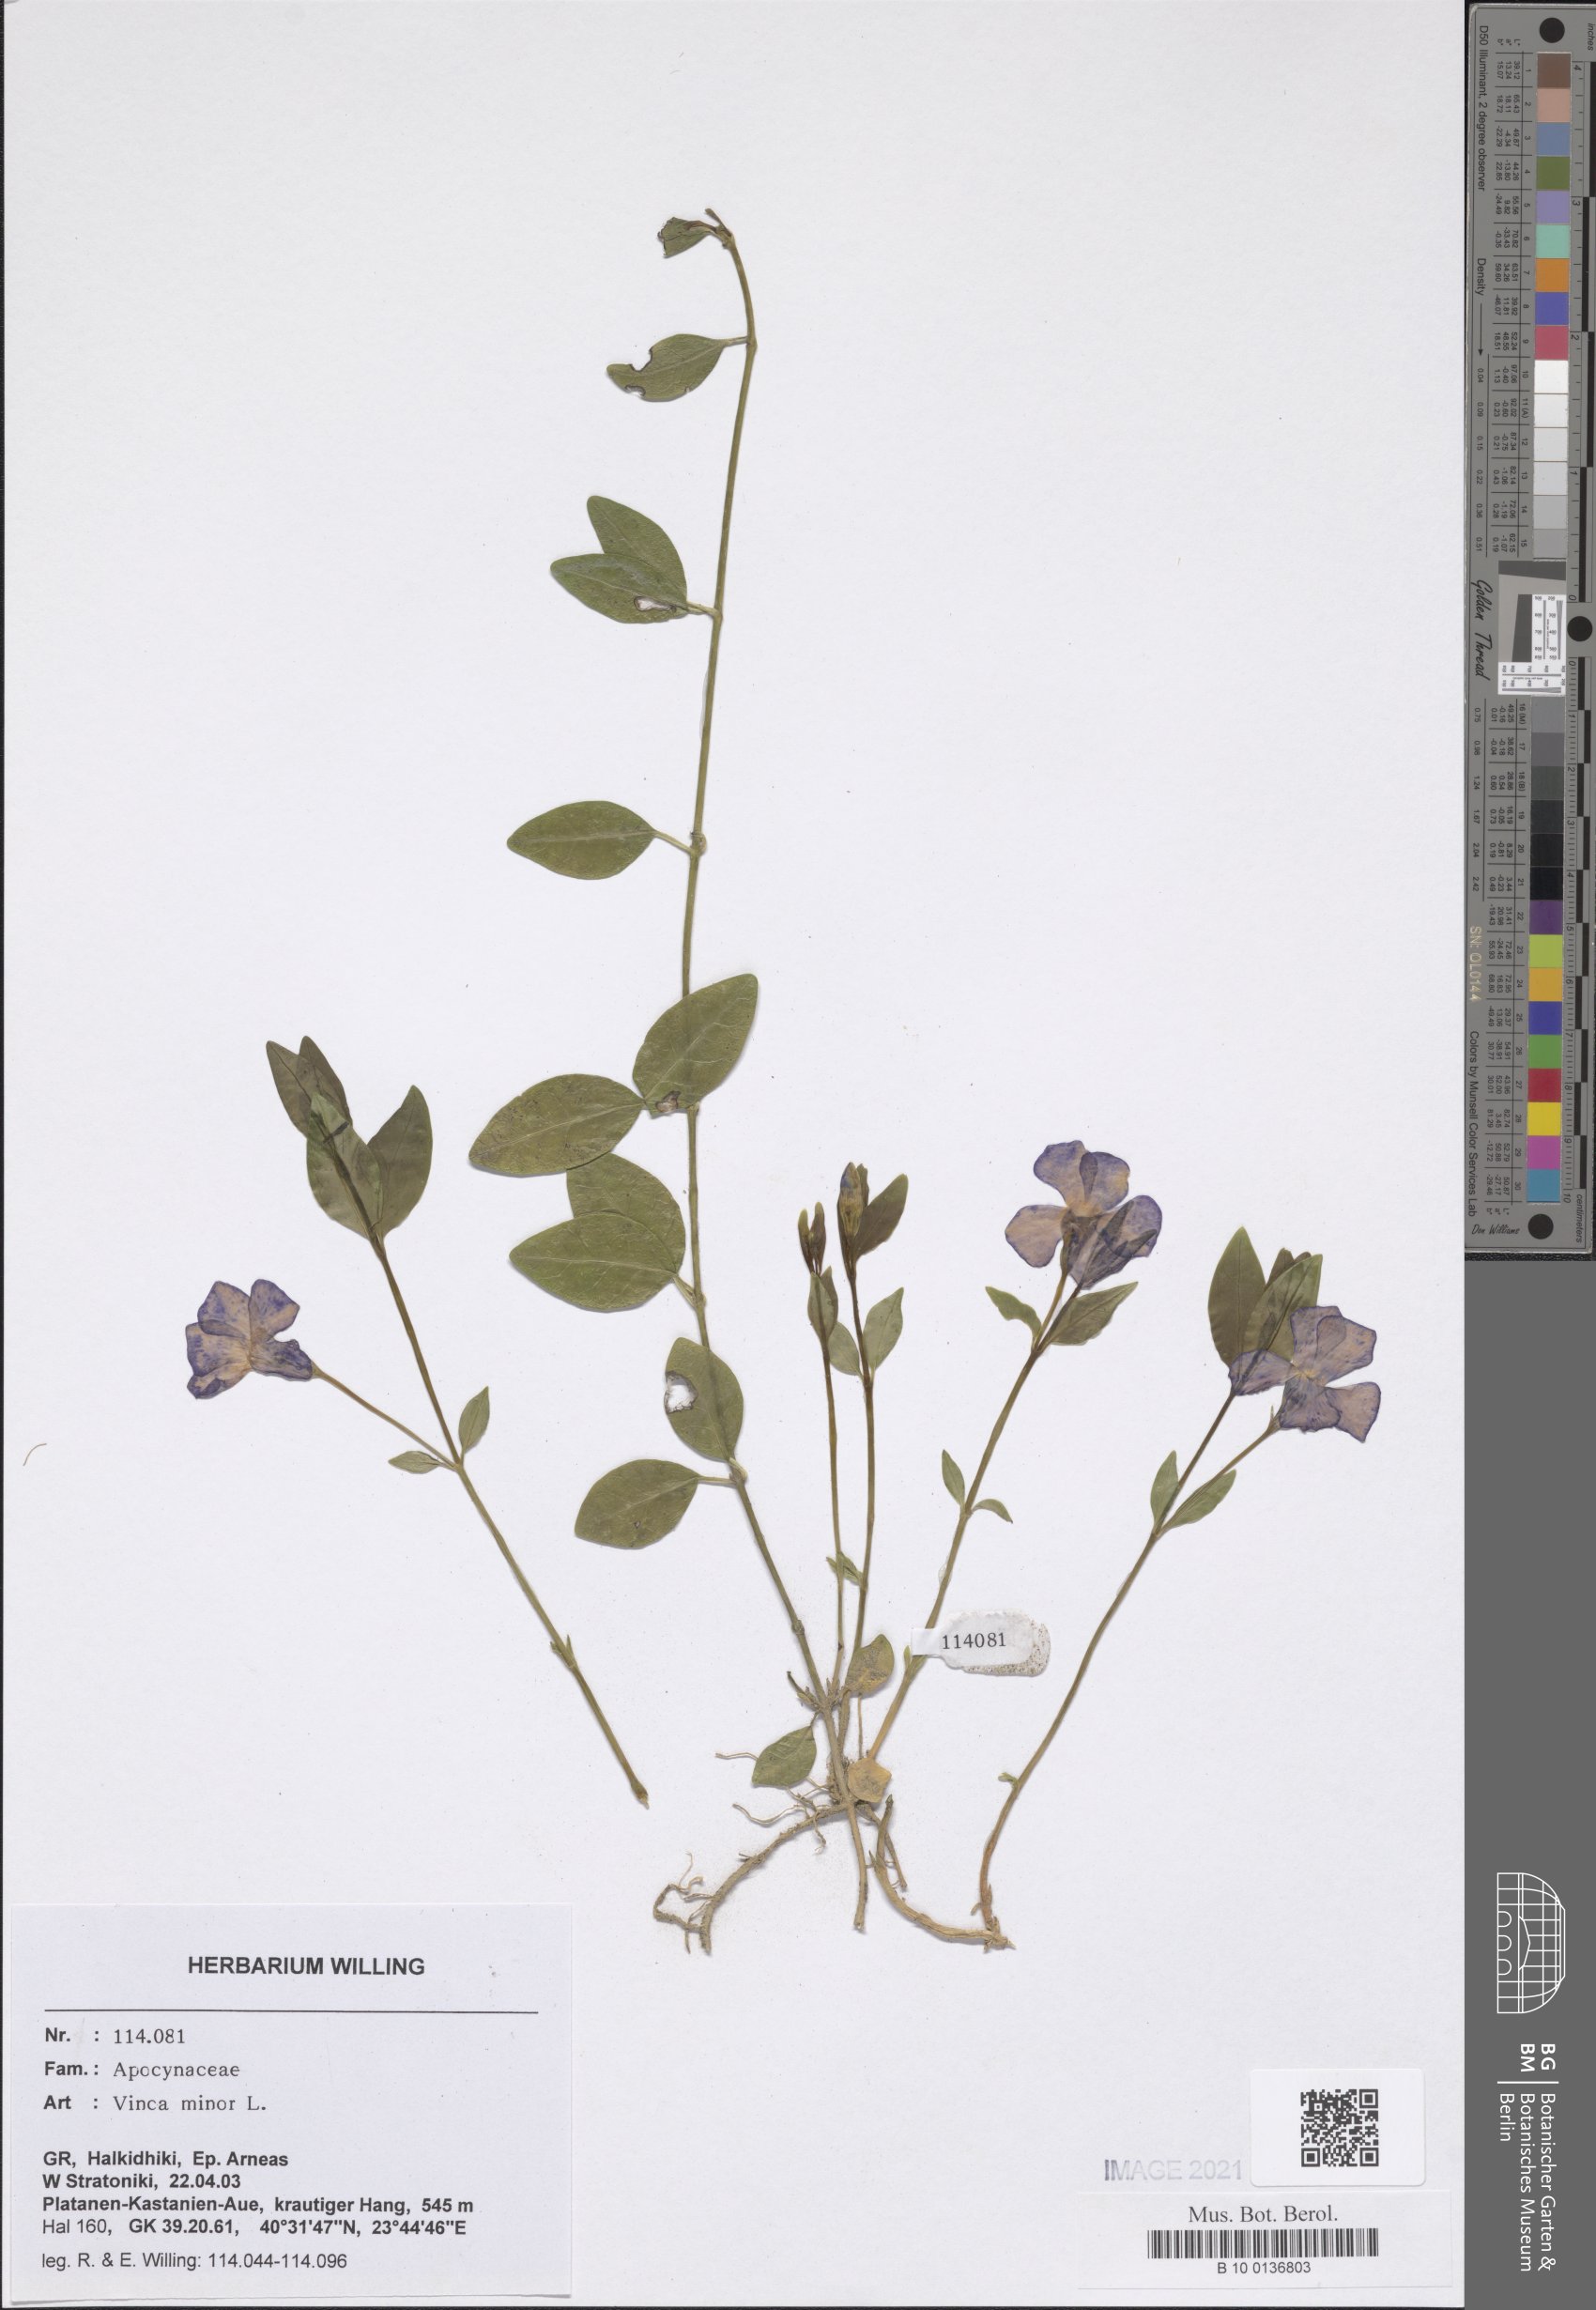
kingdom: Plantae
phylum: Tracheophyta
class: Magnoliopsida
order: Gentianales
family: Apocynaceae
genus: Vinca
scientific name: Vinca minor
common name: Lesser periwinkle
